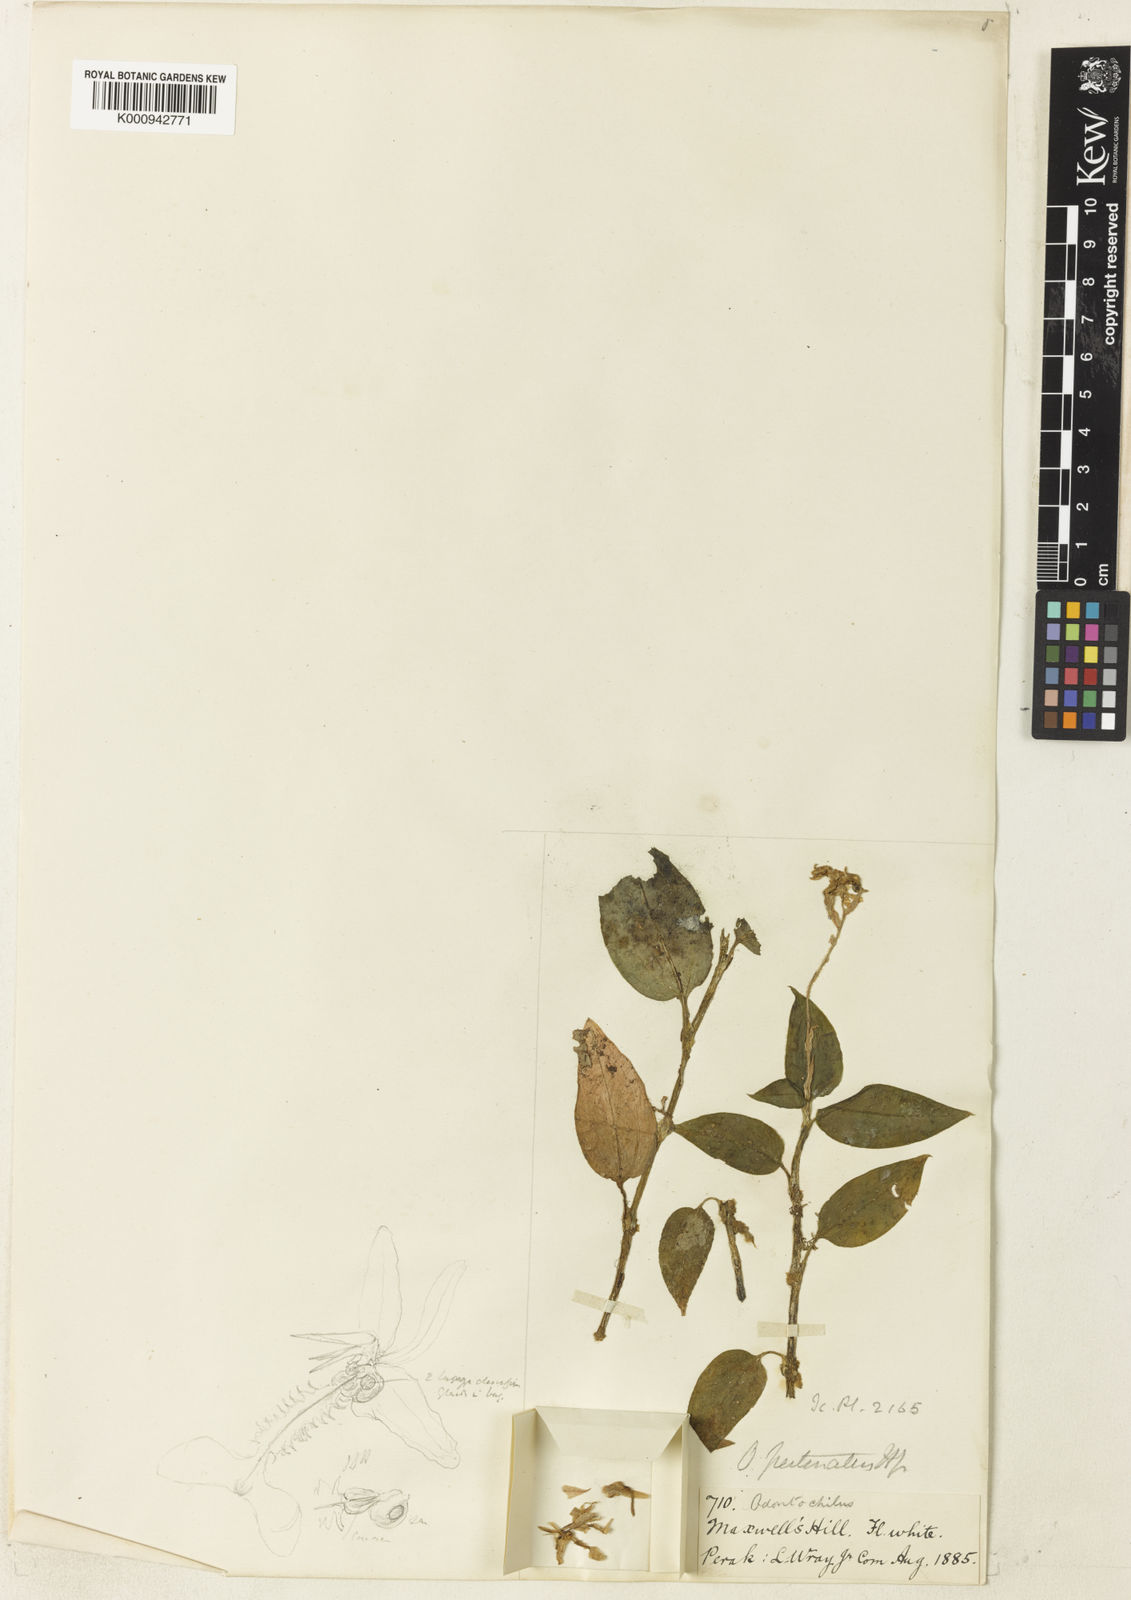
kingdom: Plantae
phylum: Tracheophyta
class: Liliopsida
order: Asparagales
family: Orchidaceae
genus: Anoectochilus
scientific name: Anoectochilus pectinatus
